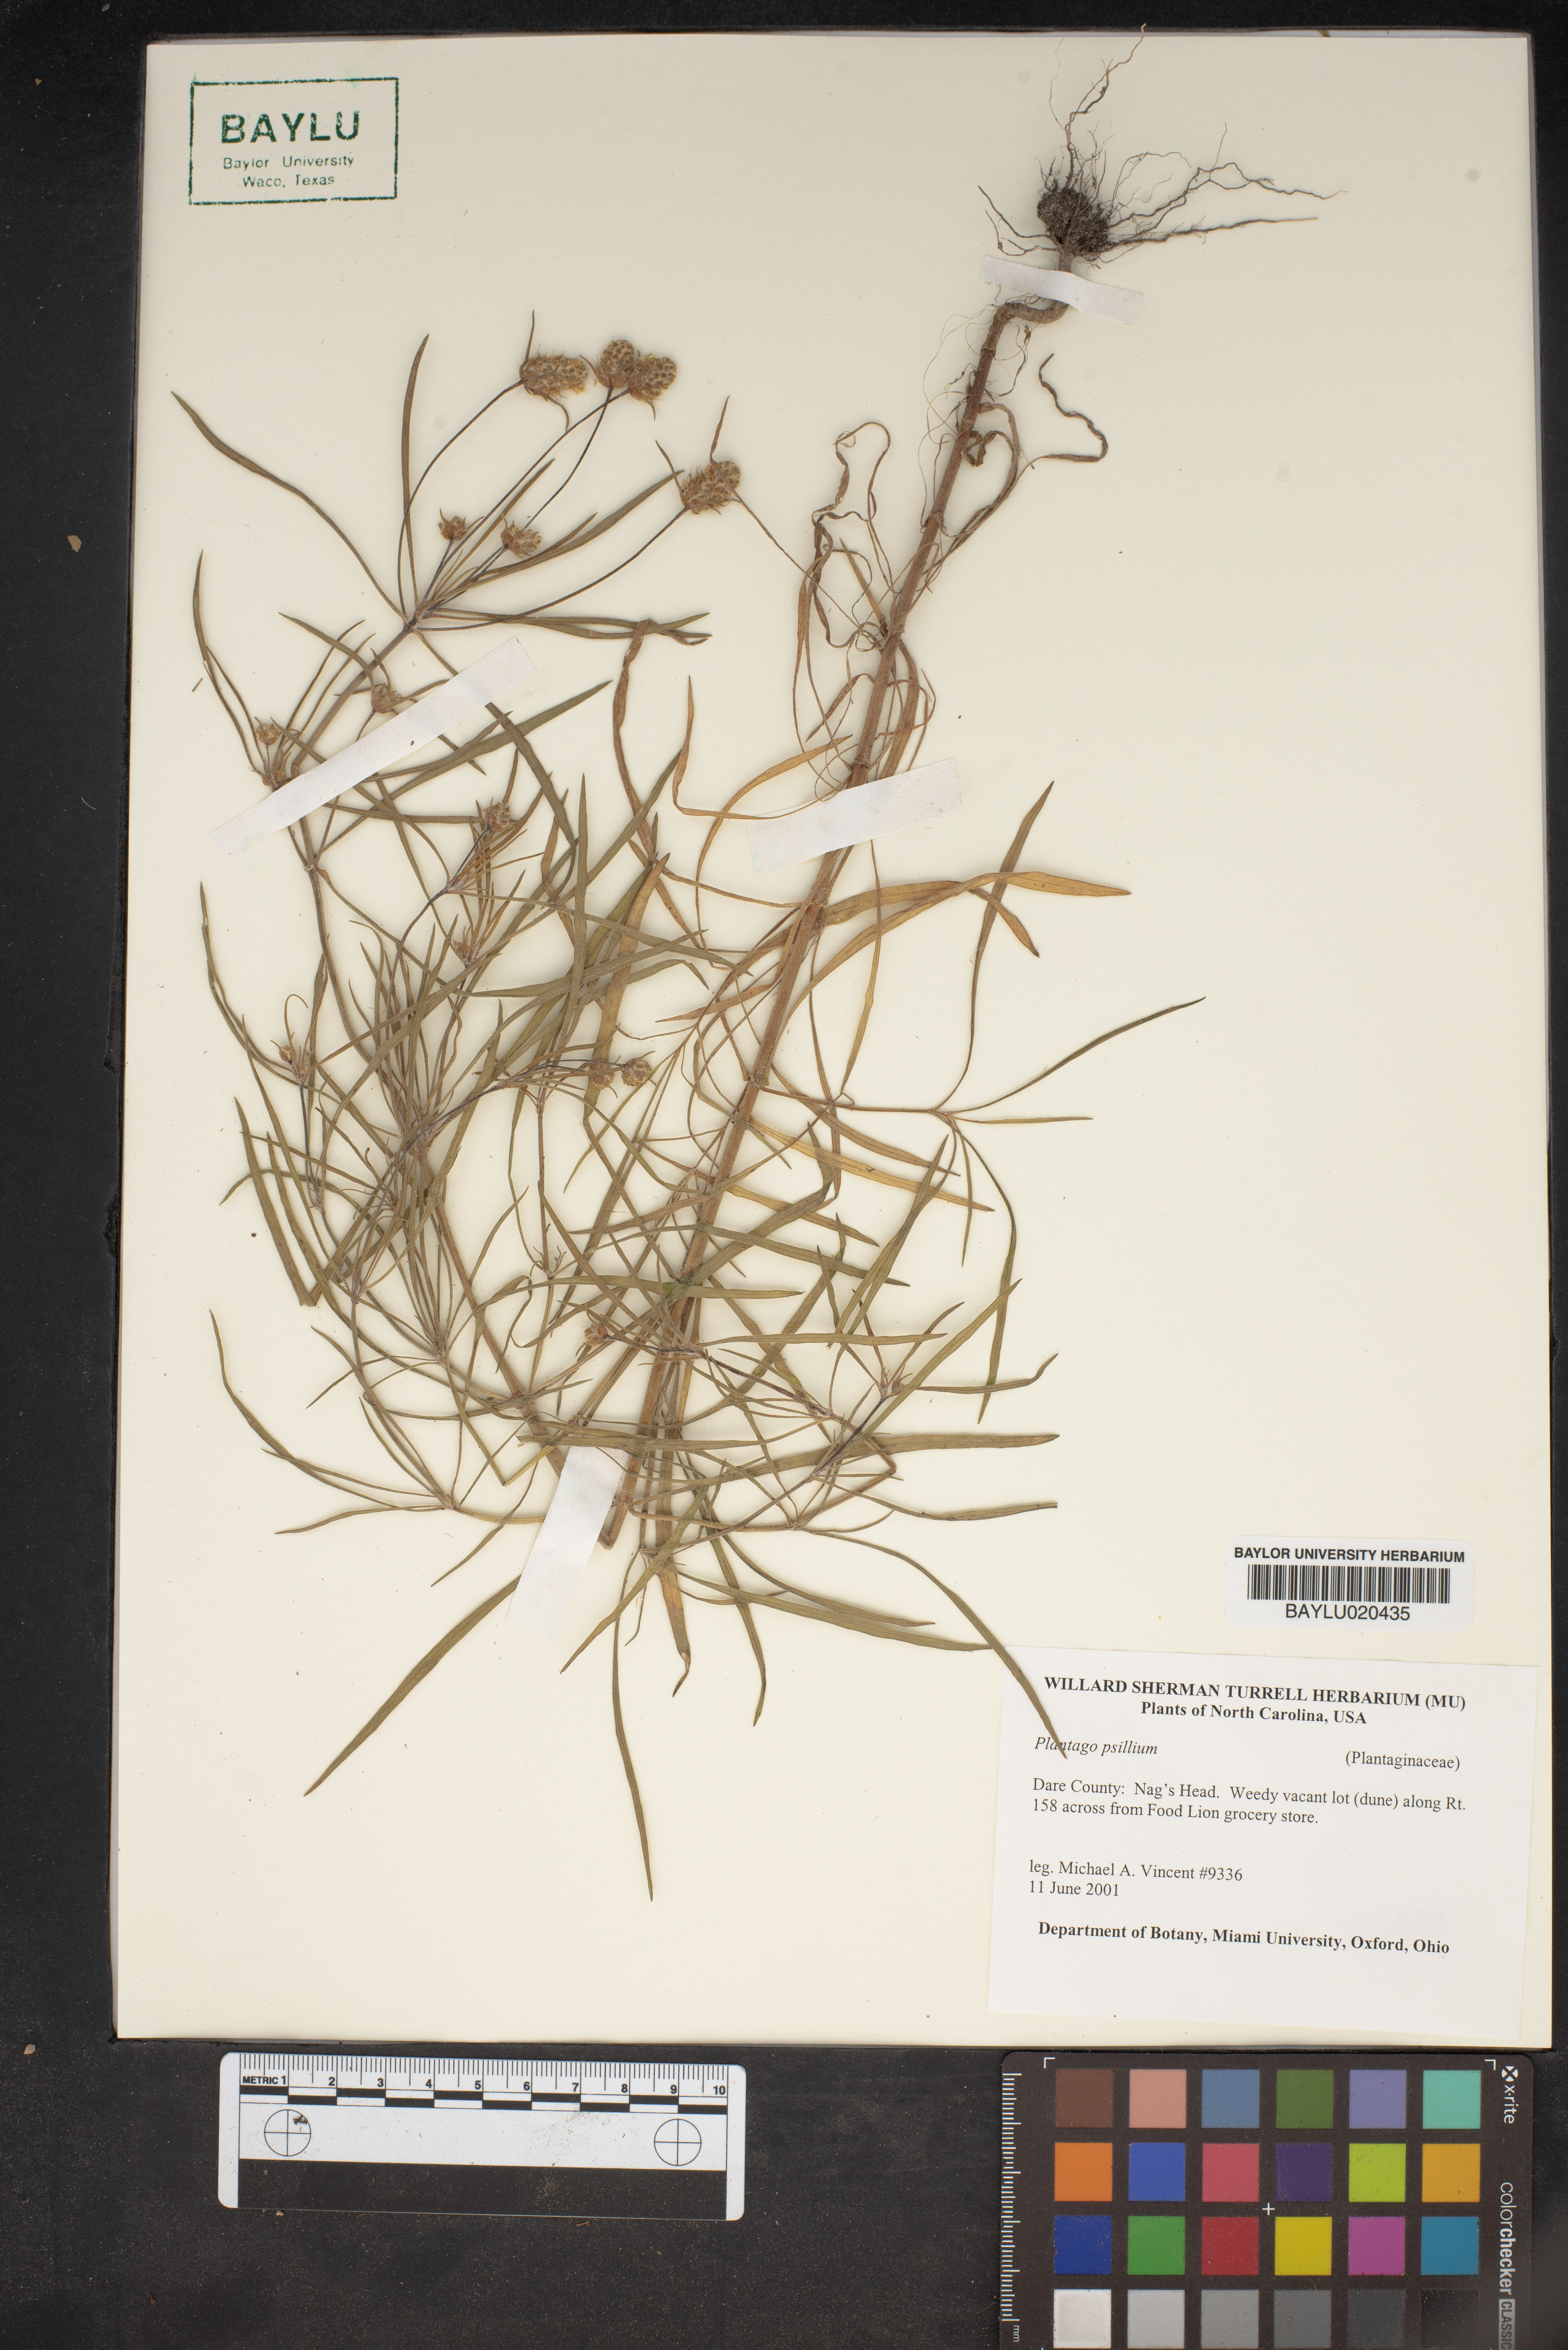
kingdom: Plantae
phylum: Tracheophyta
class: Magnoliopsida
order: Lamiales
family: Plantaginaceae
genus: Plantago
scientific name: Plantago
